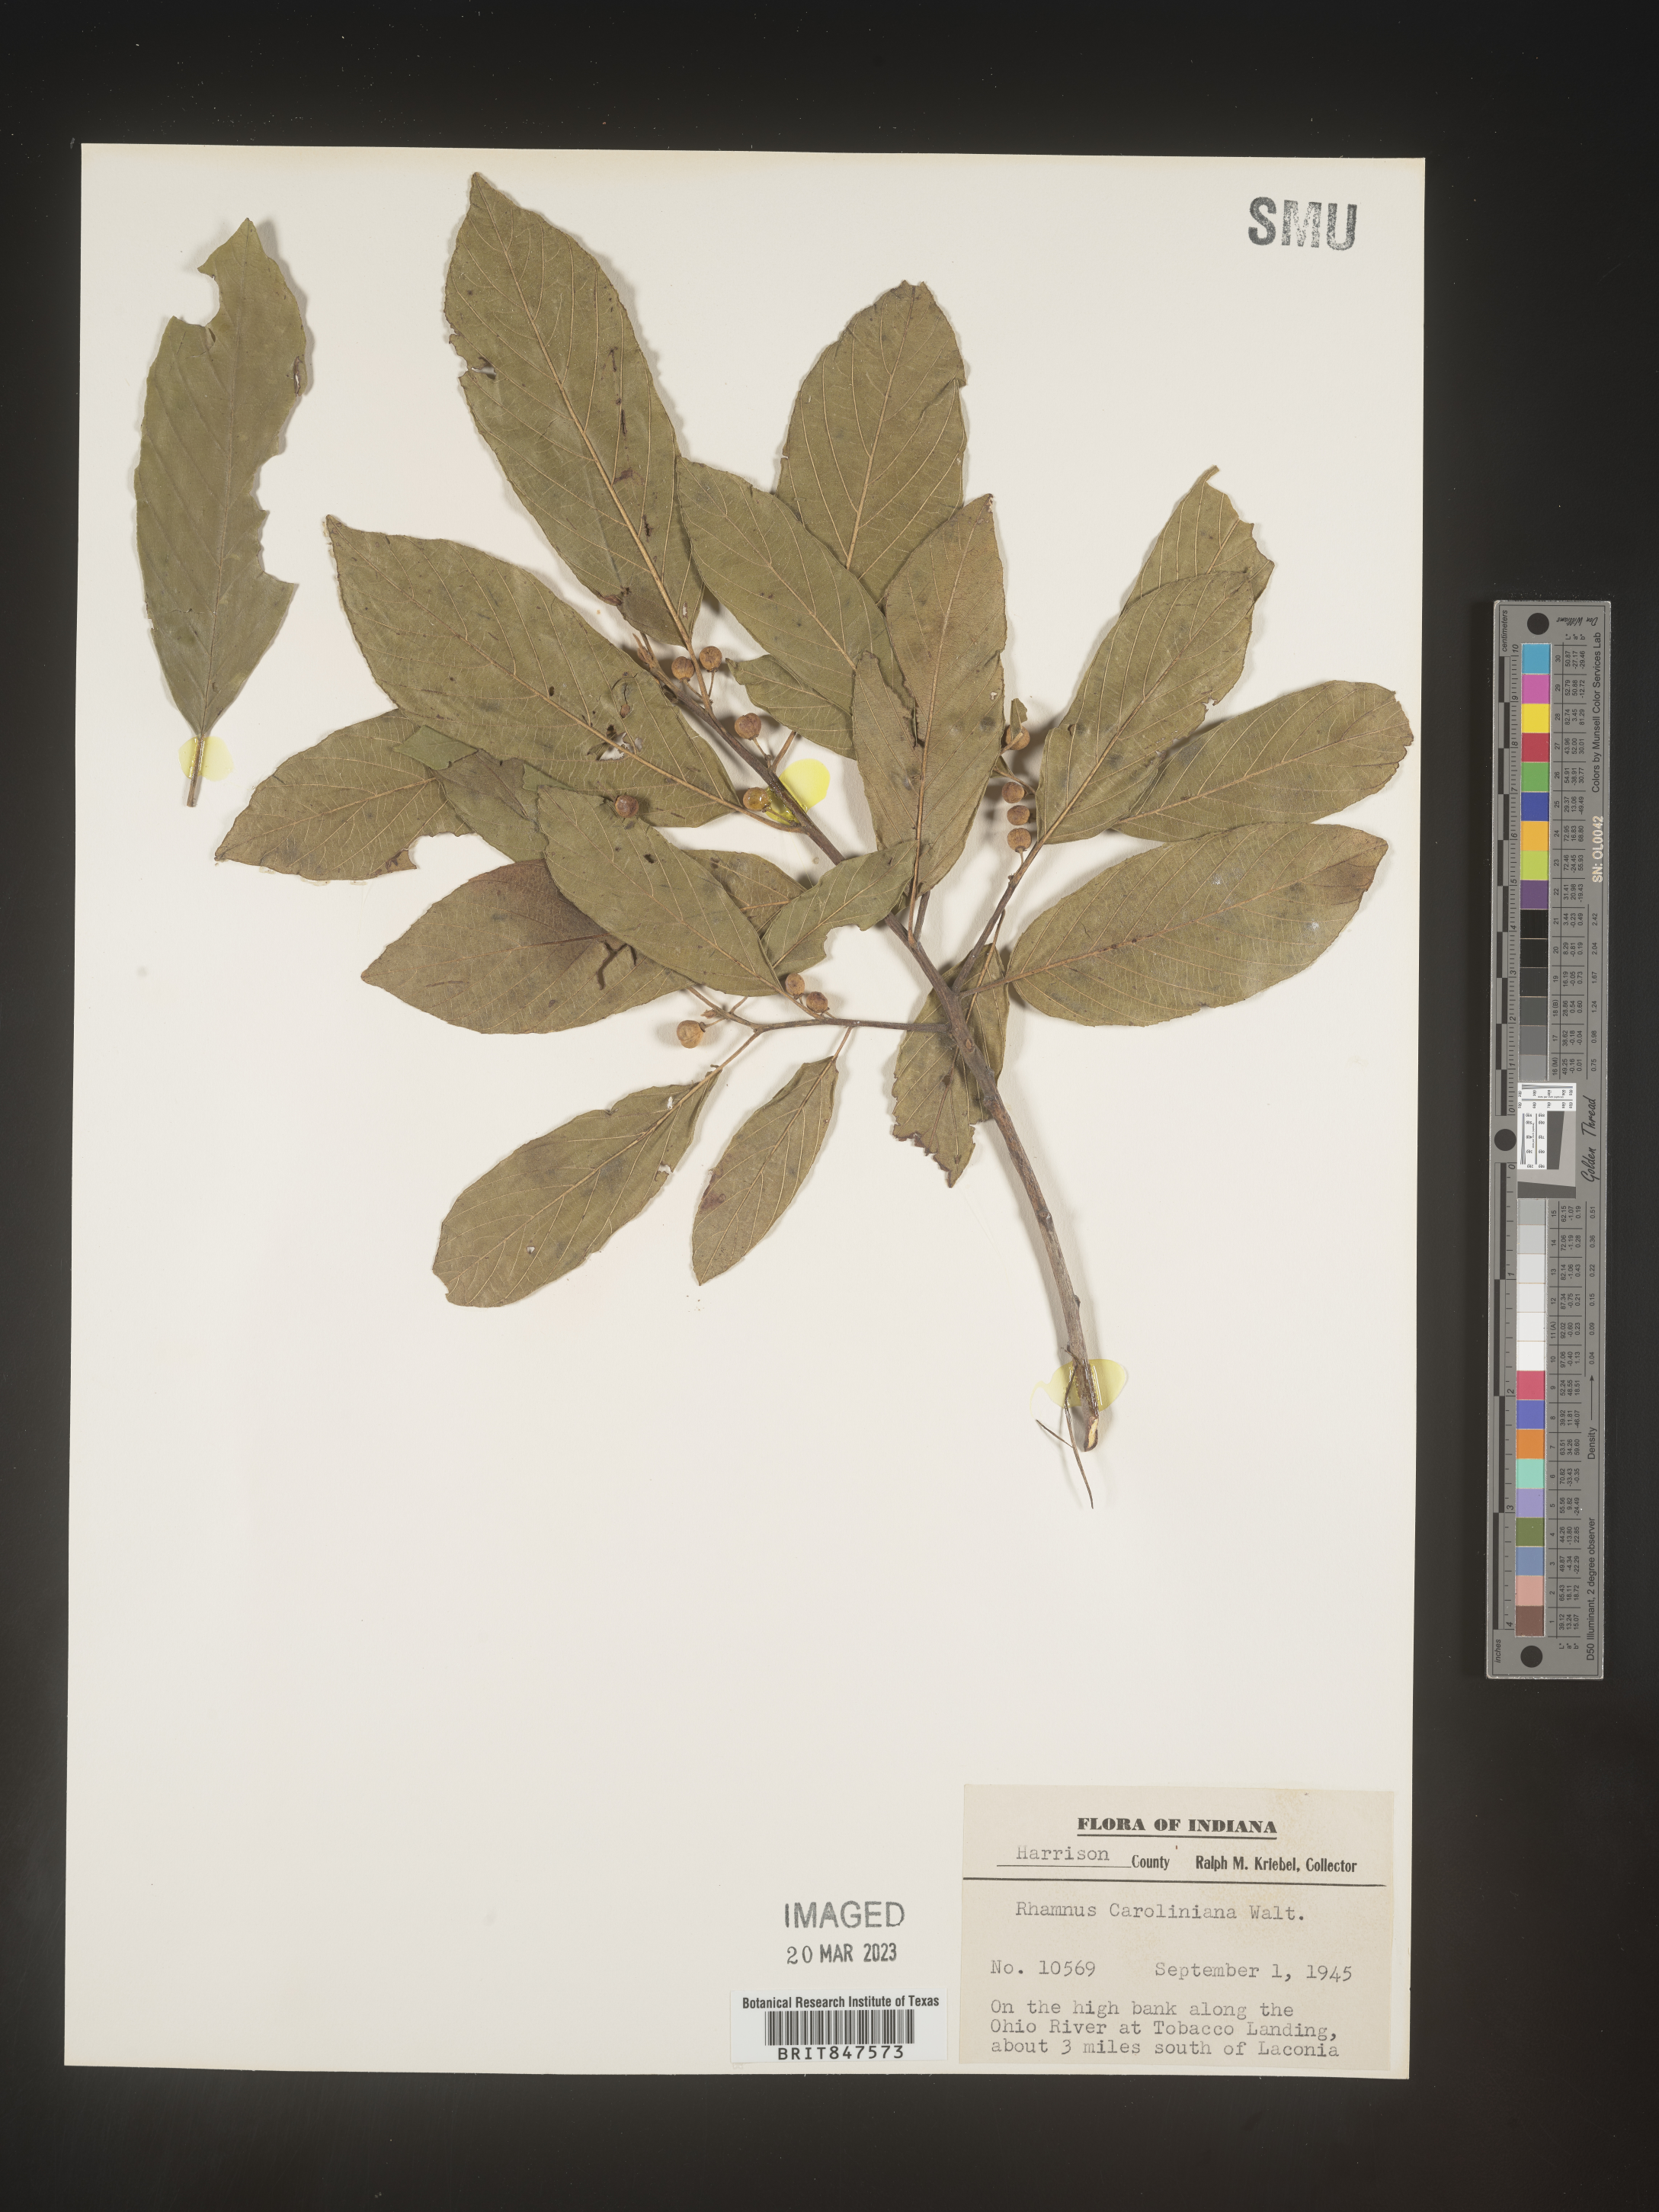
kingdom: Plantae
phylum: Tracheophyta
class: Magnoliopsida
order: Rosales
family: Rhamnaceae
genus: Frangula
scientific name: Frangula caroliniana
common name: Carolina buckthorn
